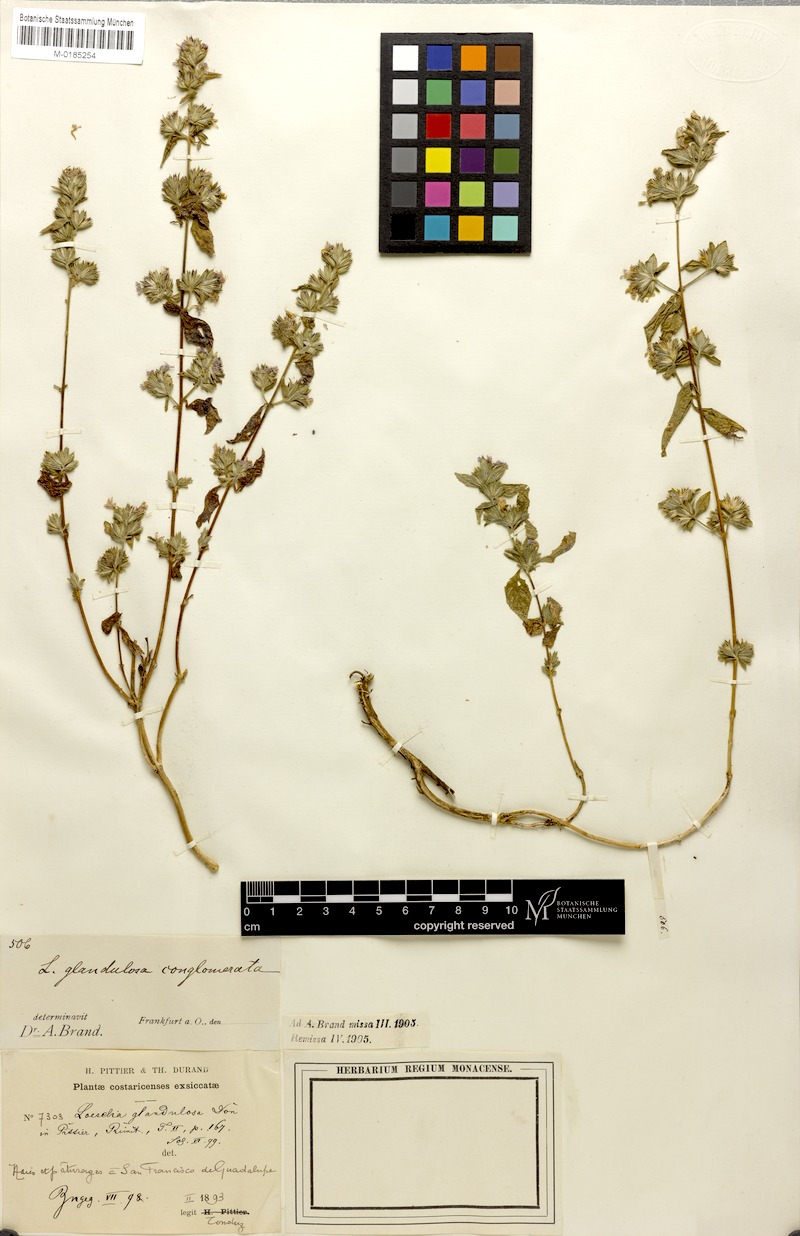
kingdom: Plantae
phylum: Tracheophyta
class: Magnoliopsida
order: Ericales
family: Polemoniaceae
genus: Loeselia
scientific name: Loeselia glandulosa
